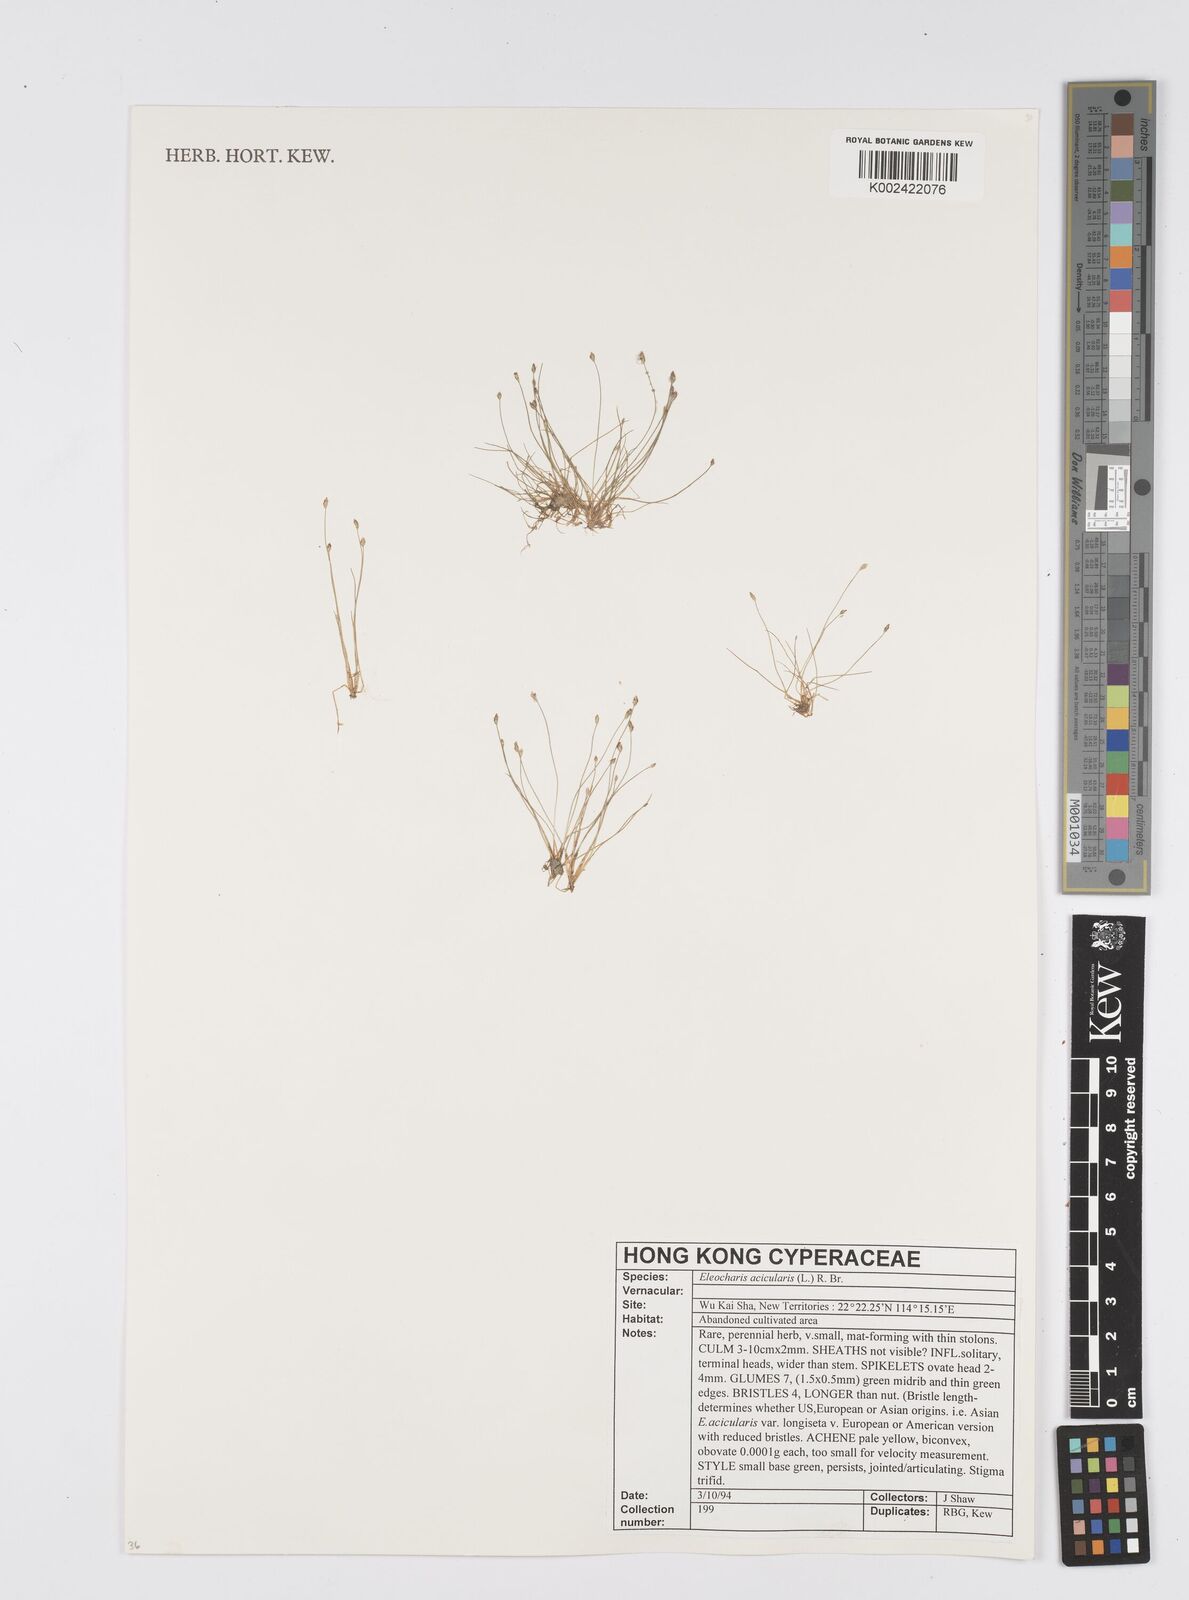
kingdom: Plantae
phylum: Tracheophyta
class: Liliopsida
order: Poales
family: Cyperaceae
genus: Eleocharis
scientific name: Eleocharis acicularis
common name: Needle spike-rush
